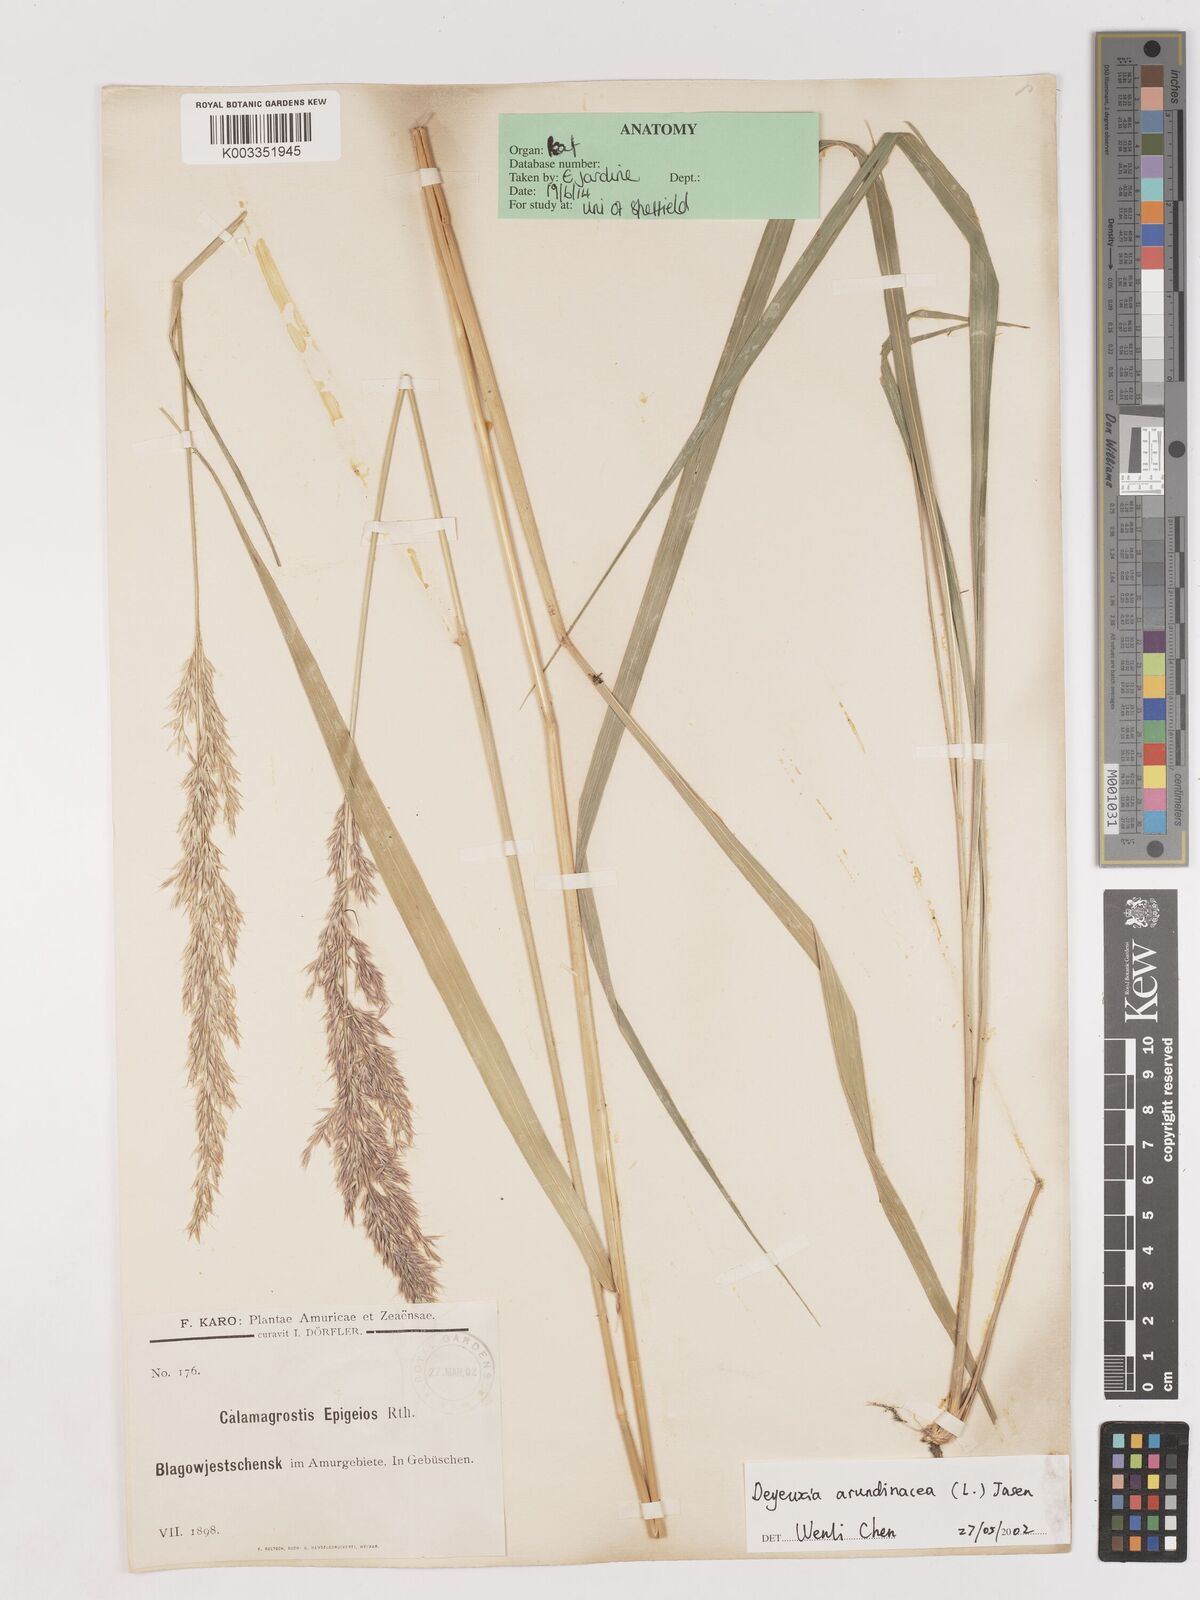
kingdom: Plantae
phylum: Tracheophyta
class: Liliopsida
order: Poales
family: Poaceae
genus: Calamagrostis
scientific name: Calamagrostis epigejos
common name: Wood small-reed
